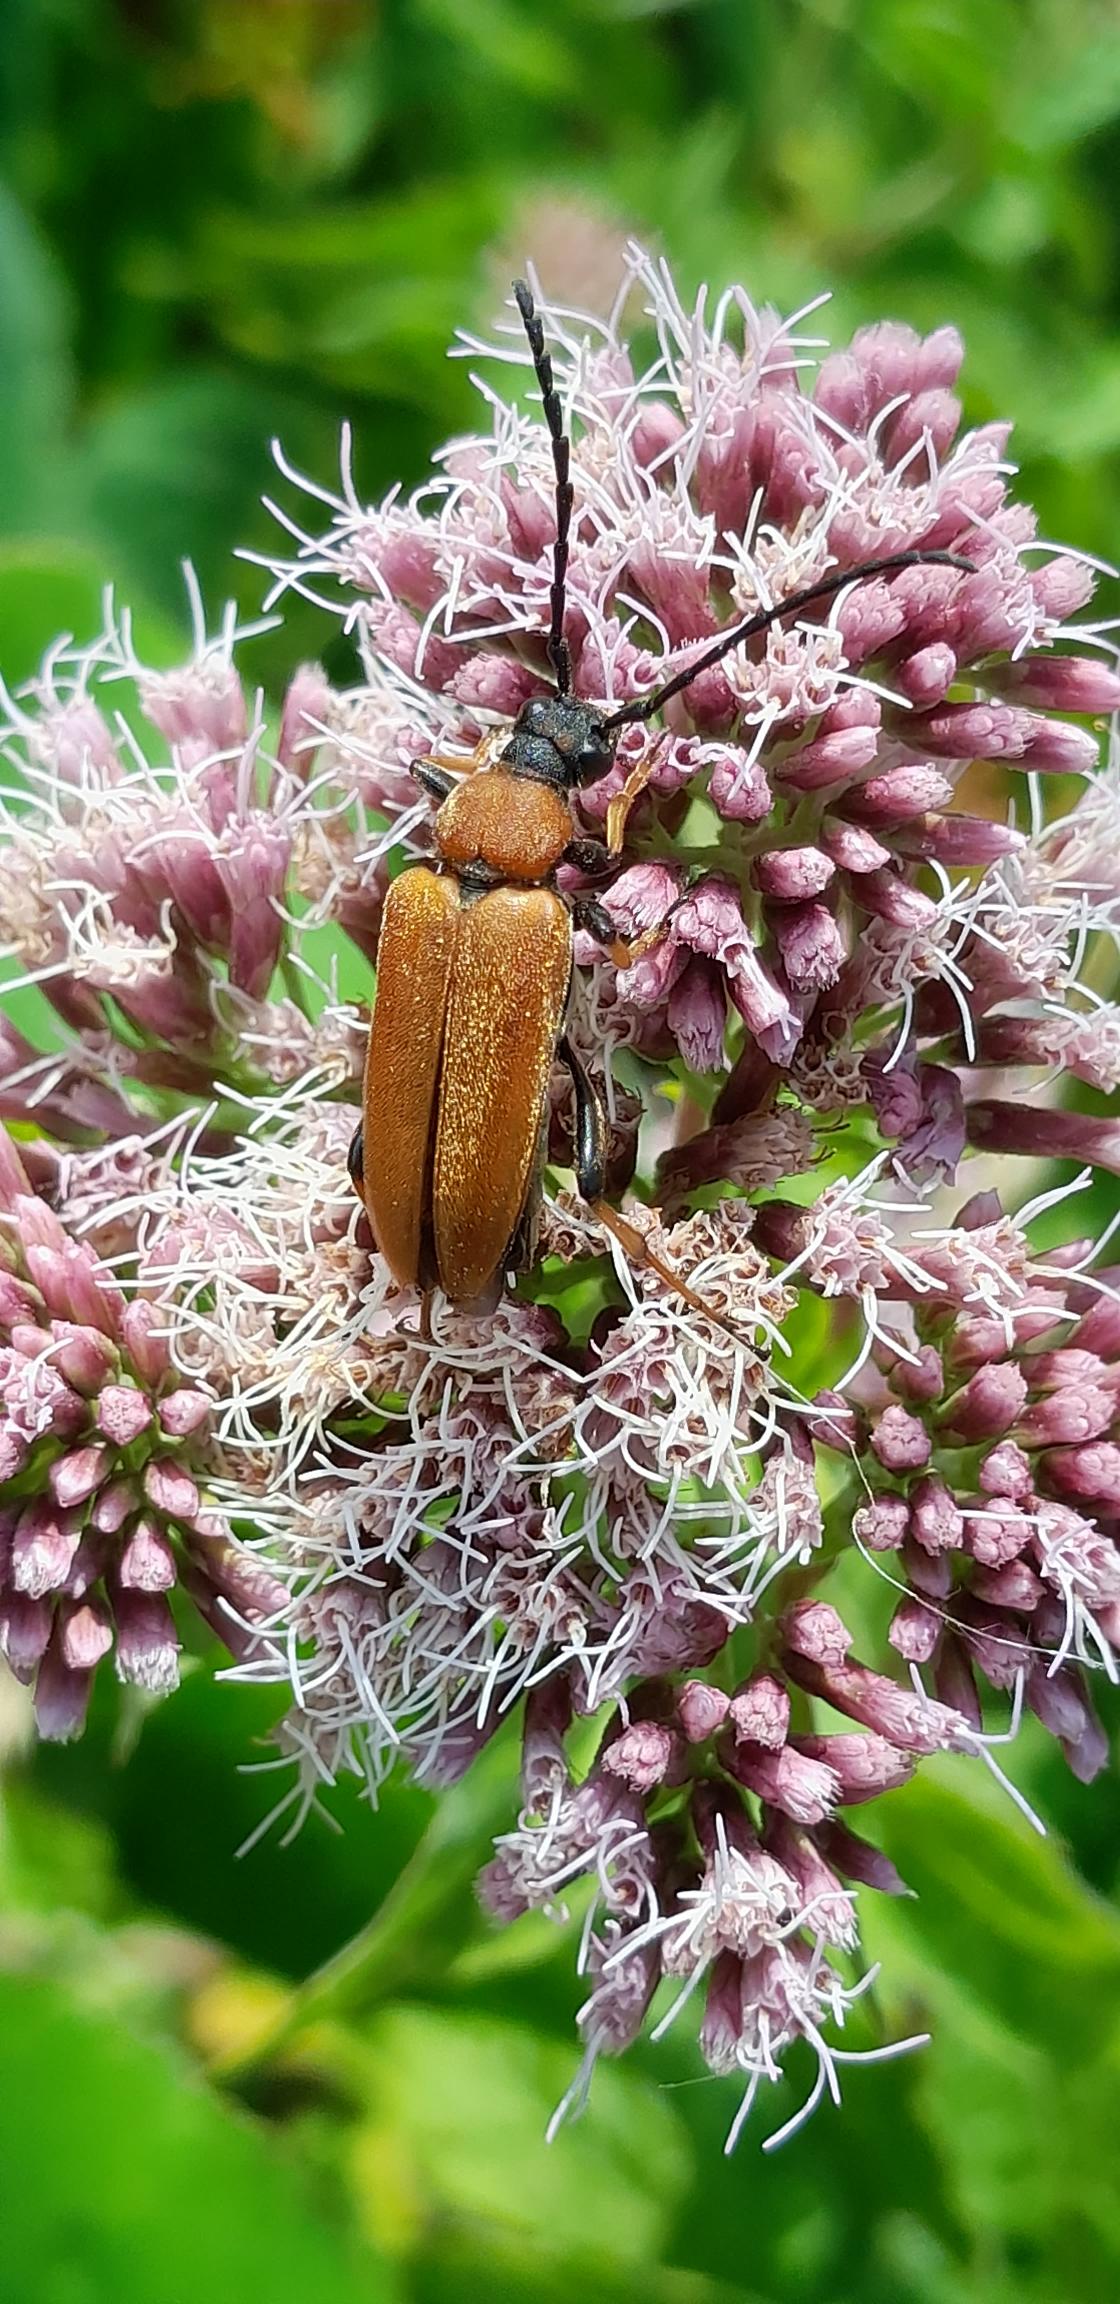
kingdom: Animalia
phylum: Arthropoda
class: Insecta
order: Coleoptera
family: Cerambycidae
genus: Stictoleptura
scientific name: Stictoleptura rubra
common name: Rød blomsterbuk
